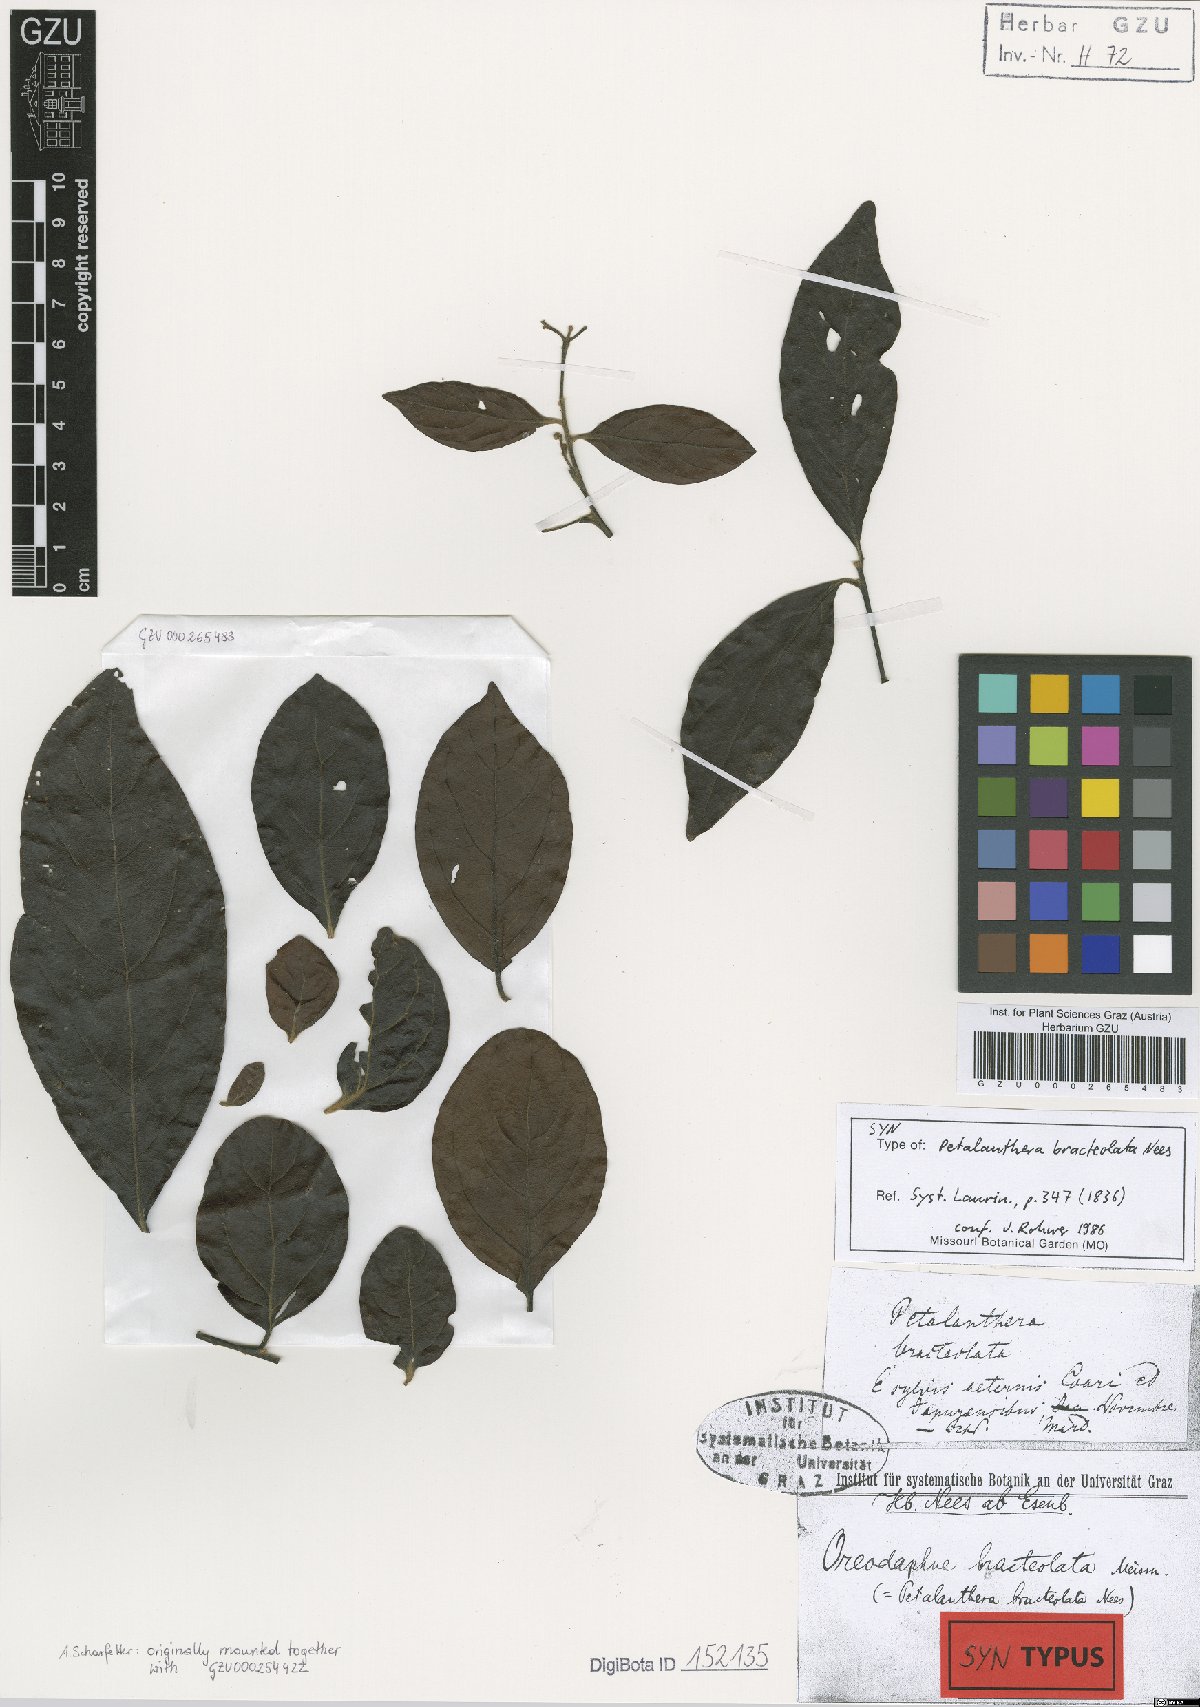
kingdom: Plantae
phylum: Tracheophyta
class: Magnoliopsida
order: Laurales
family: Lauraceae
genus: Ocotea
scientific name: Ocotea petalanthera
